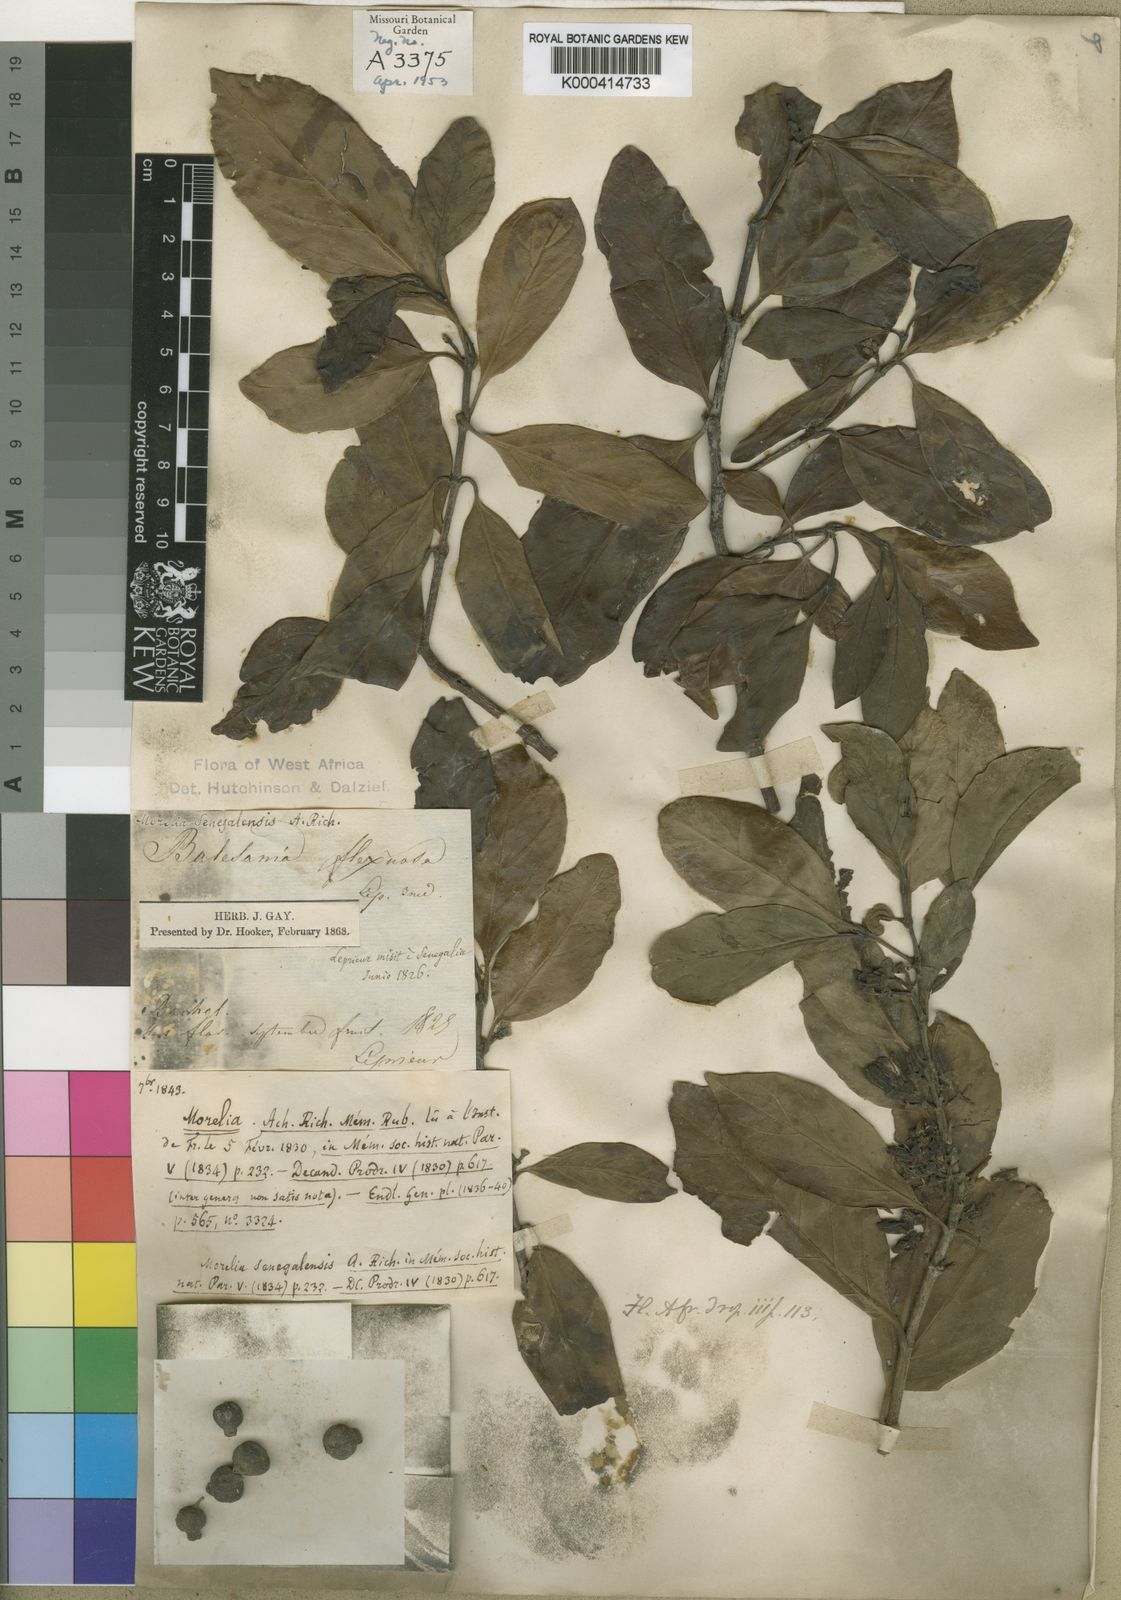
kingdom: Plantae
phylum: Tracheophyta
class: Magnoliopsida
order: Gentianales
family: Rubiaceae
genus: Morelia
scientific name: Morelia senegalensis
